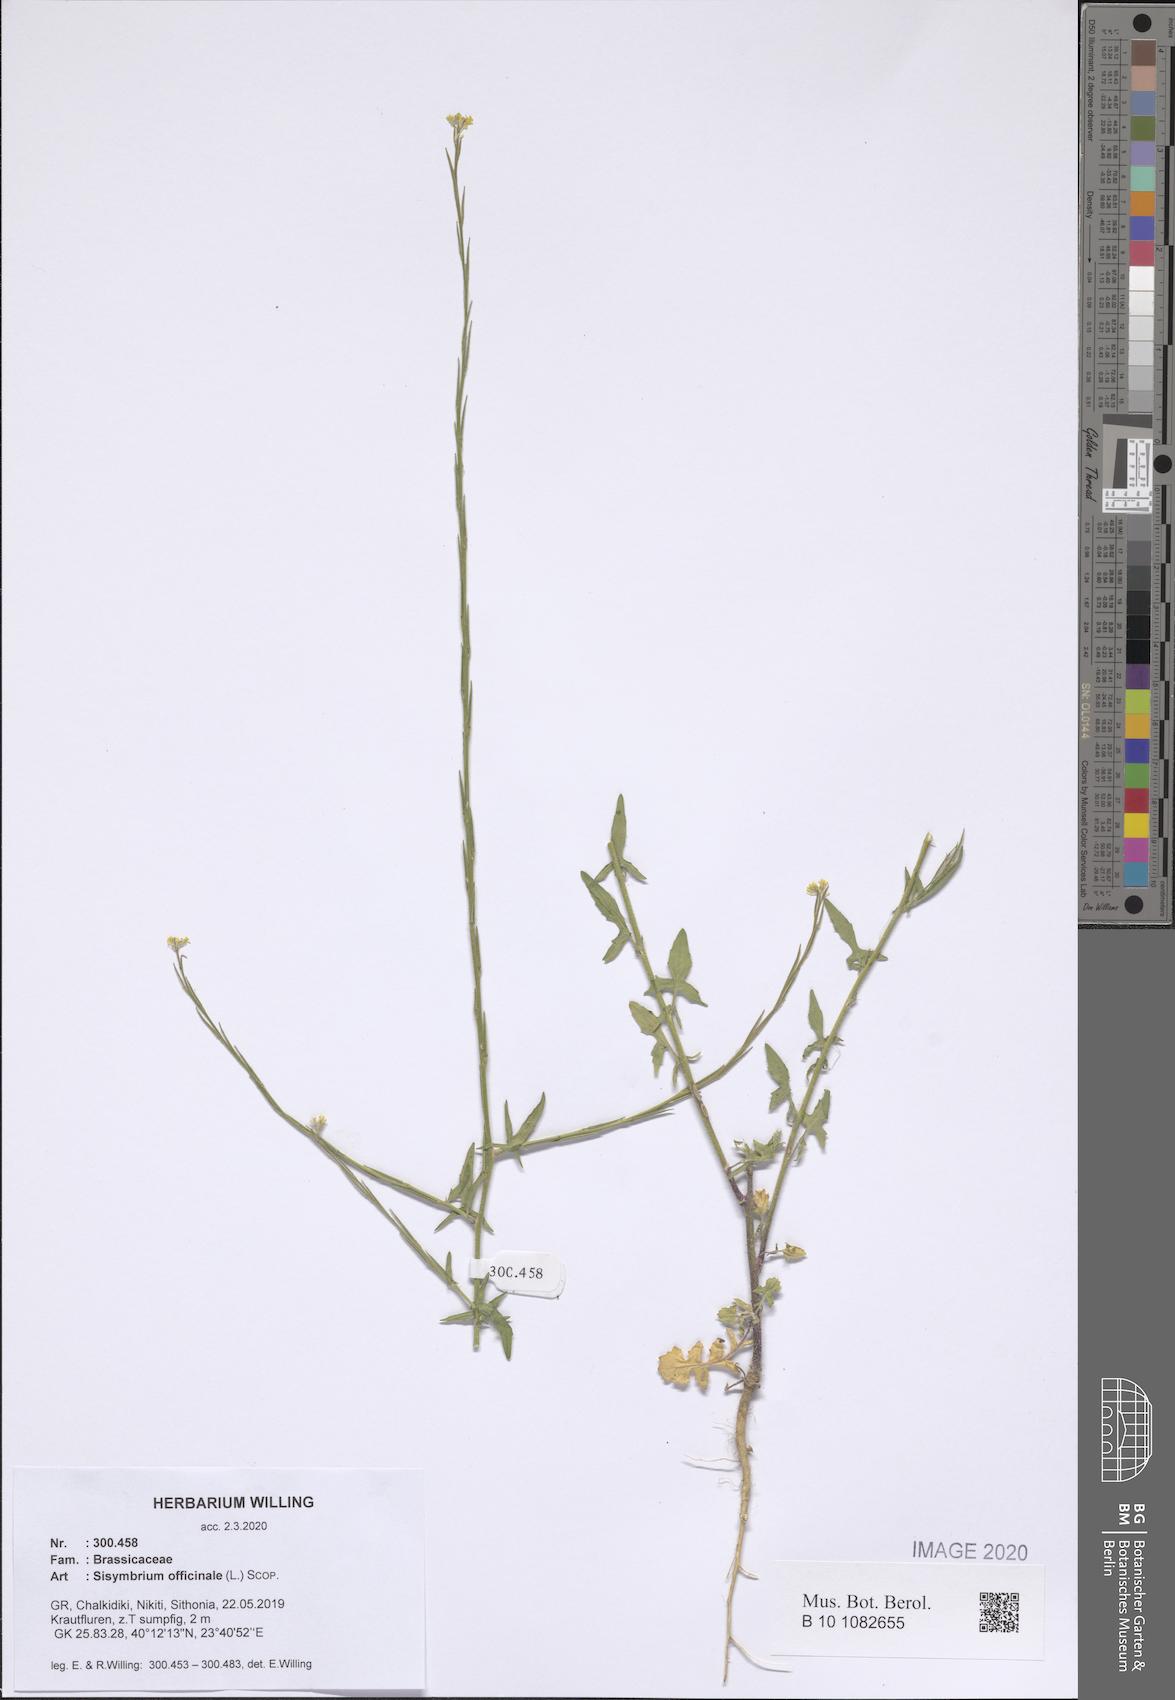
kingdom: Plantae
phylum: Tracheophyta
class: Magnoliopsida
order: Brassicales
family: Brassicaceae
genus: Sisymbrium
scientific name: Sisymbrium officinale
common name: Hedge mustard
